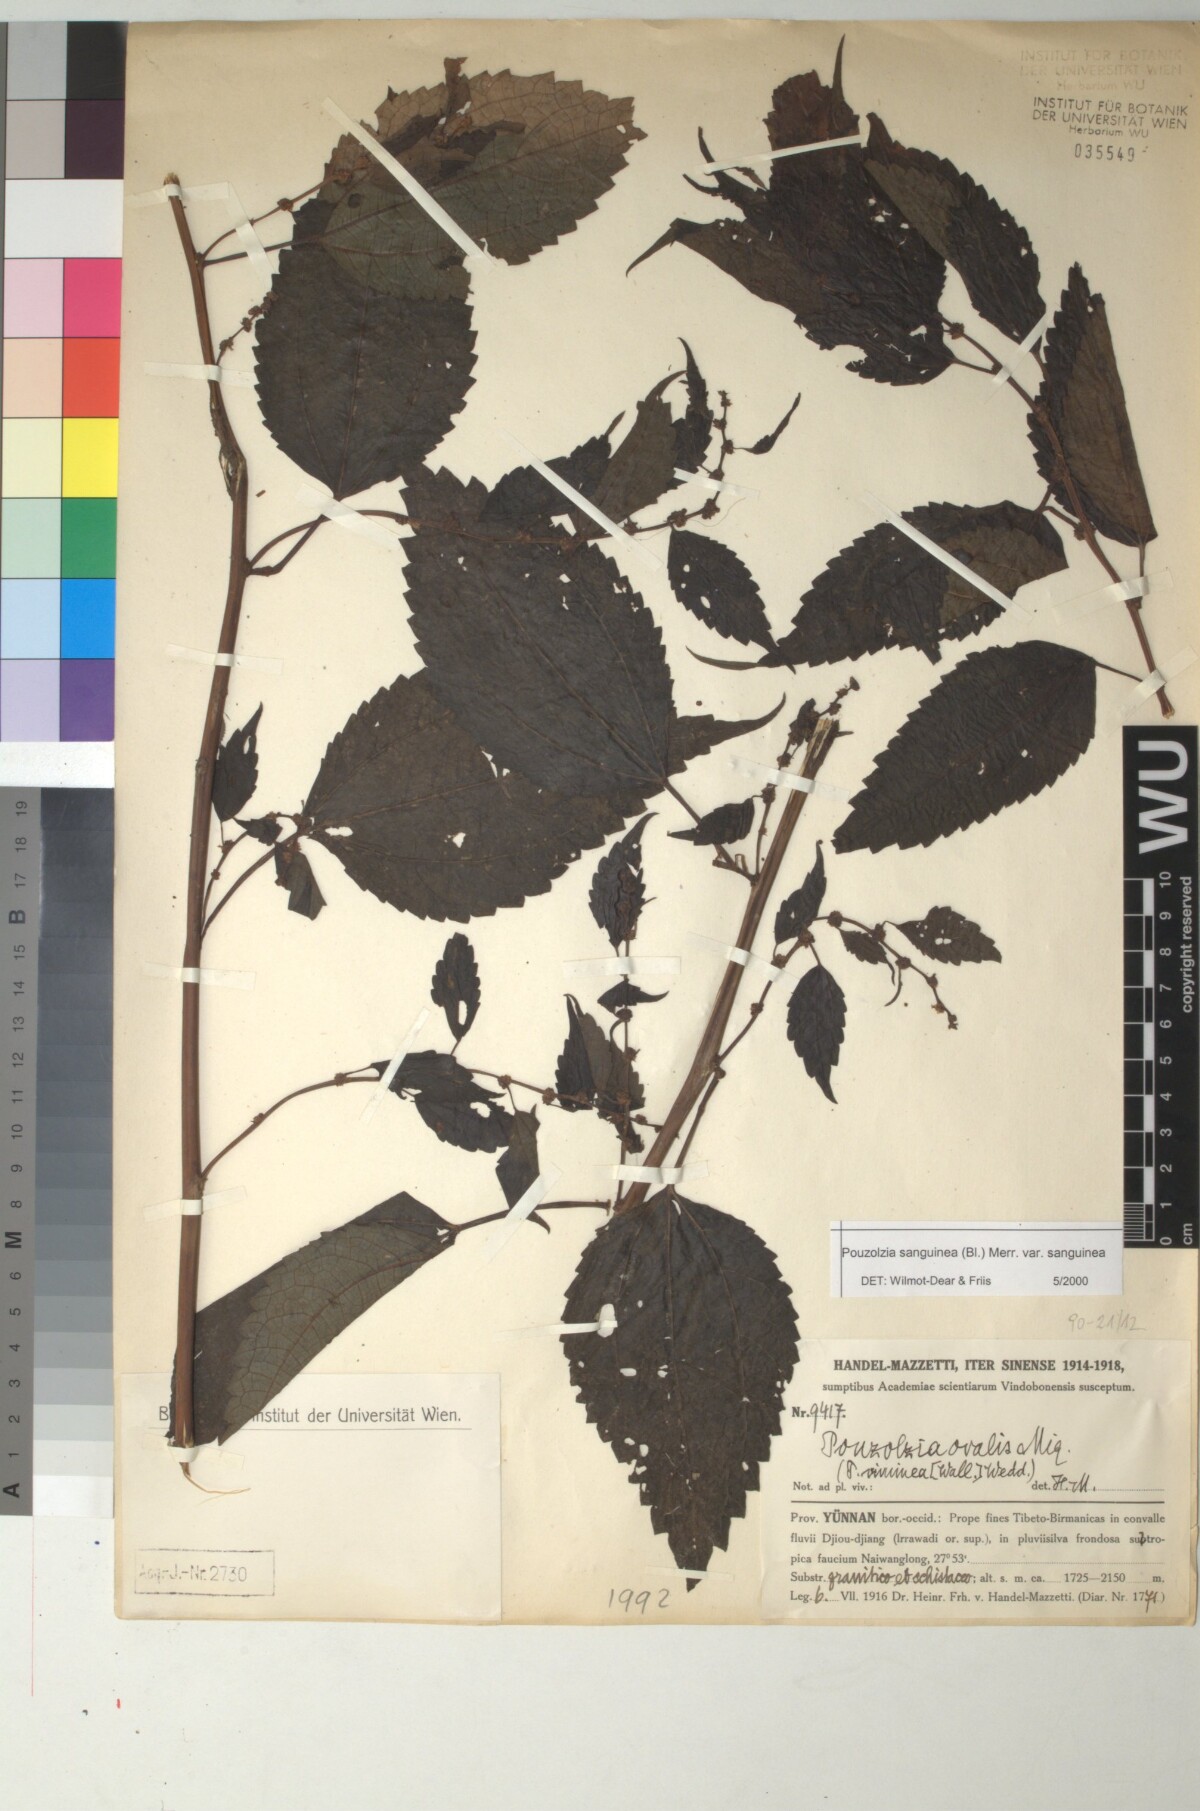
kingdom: Plantae
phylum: Tracheophyta
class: Magnoliopsida
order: Rosales
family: Urticaceae
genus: Pouzolzia
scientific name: Pouzolzia sanguinea
